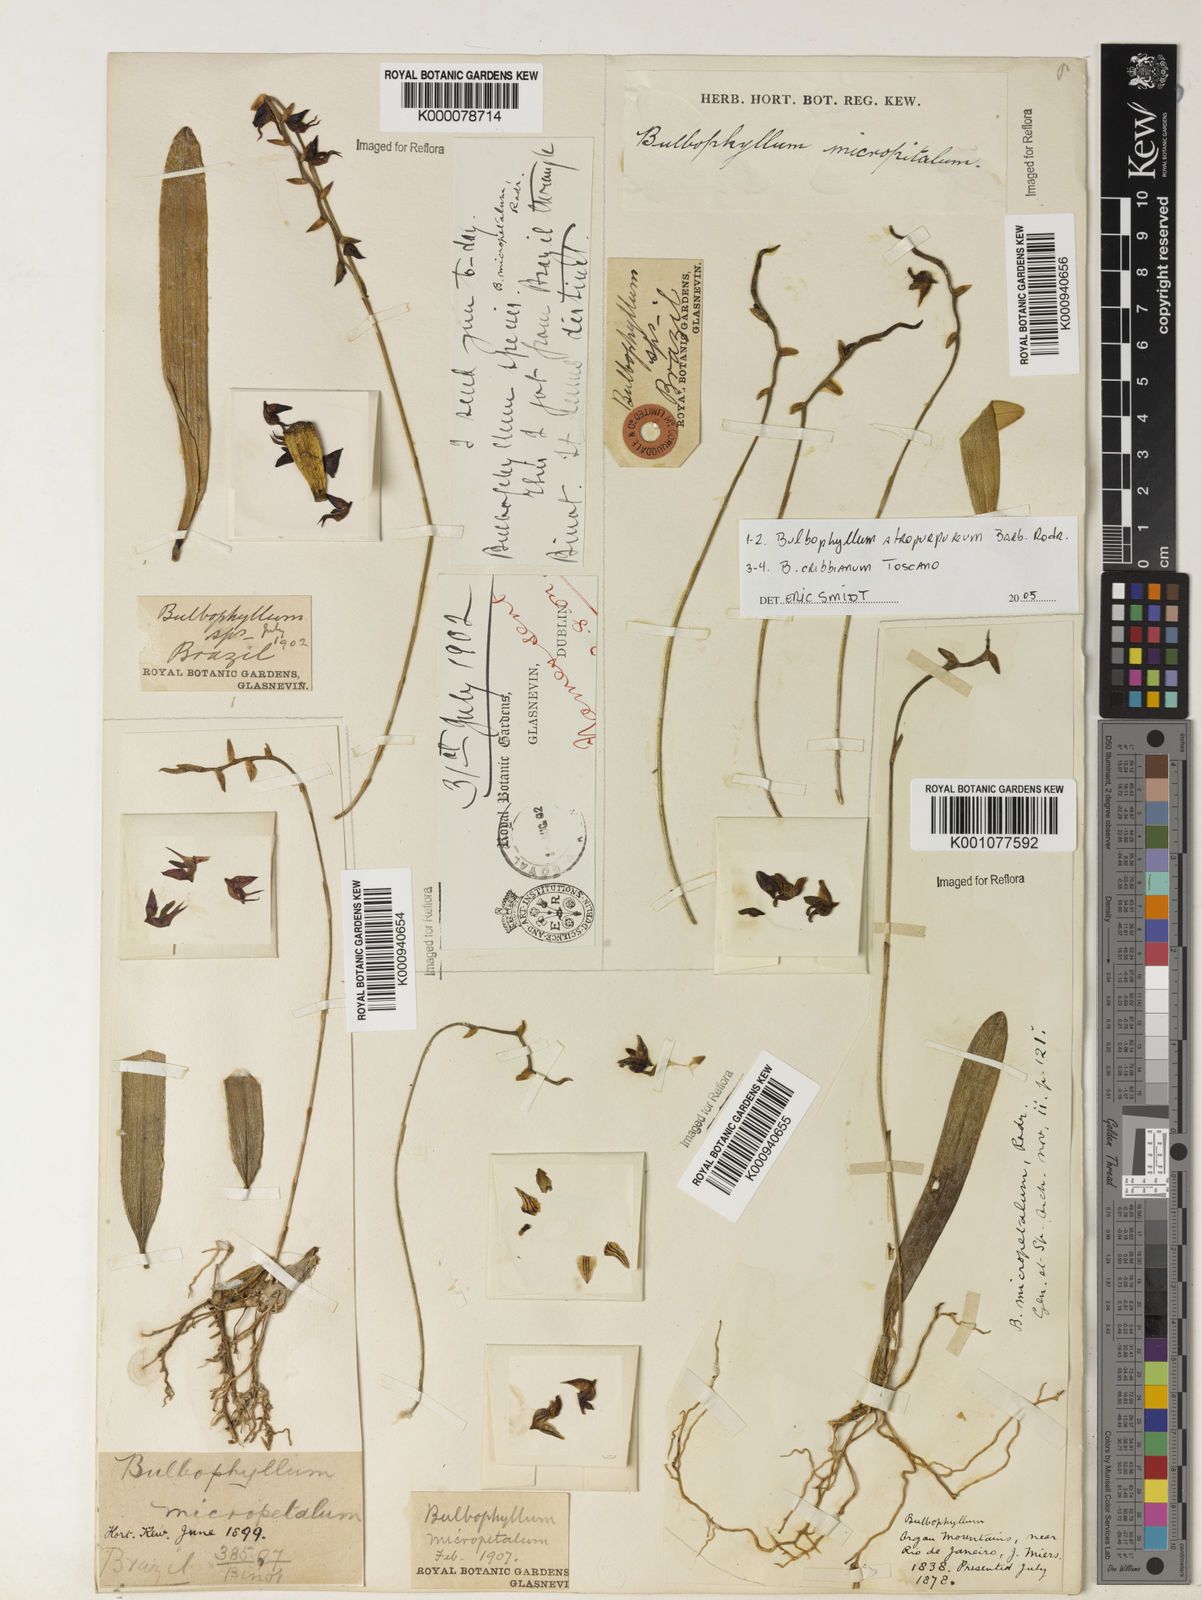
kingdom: Plantae
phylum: Tracheophyta
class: Liliopsida
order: Asparagales
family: Orchidaceae
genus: Bulbophyllum
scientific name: Bulbophyllum micropetaliforme
